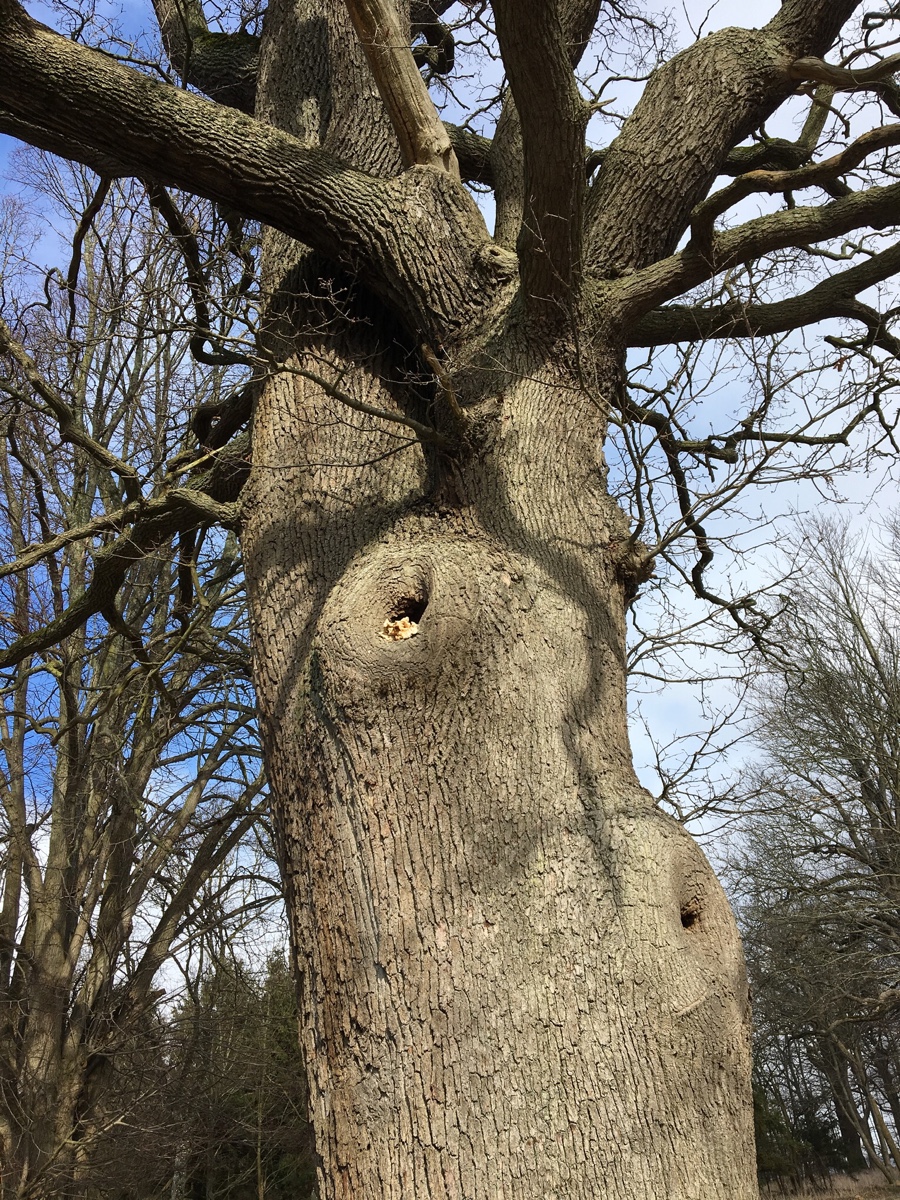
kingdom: Fungi
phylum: Basidiomycota
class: Agaricomycetes
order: Polyporales
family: Laetiporaceae
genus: Laetiporus
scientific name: Laetiporus sulphureus
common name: svovlporesvamp
